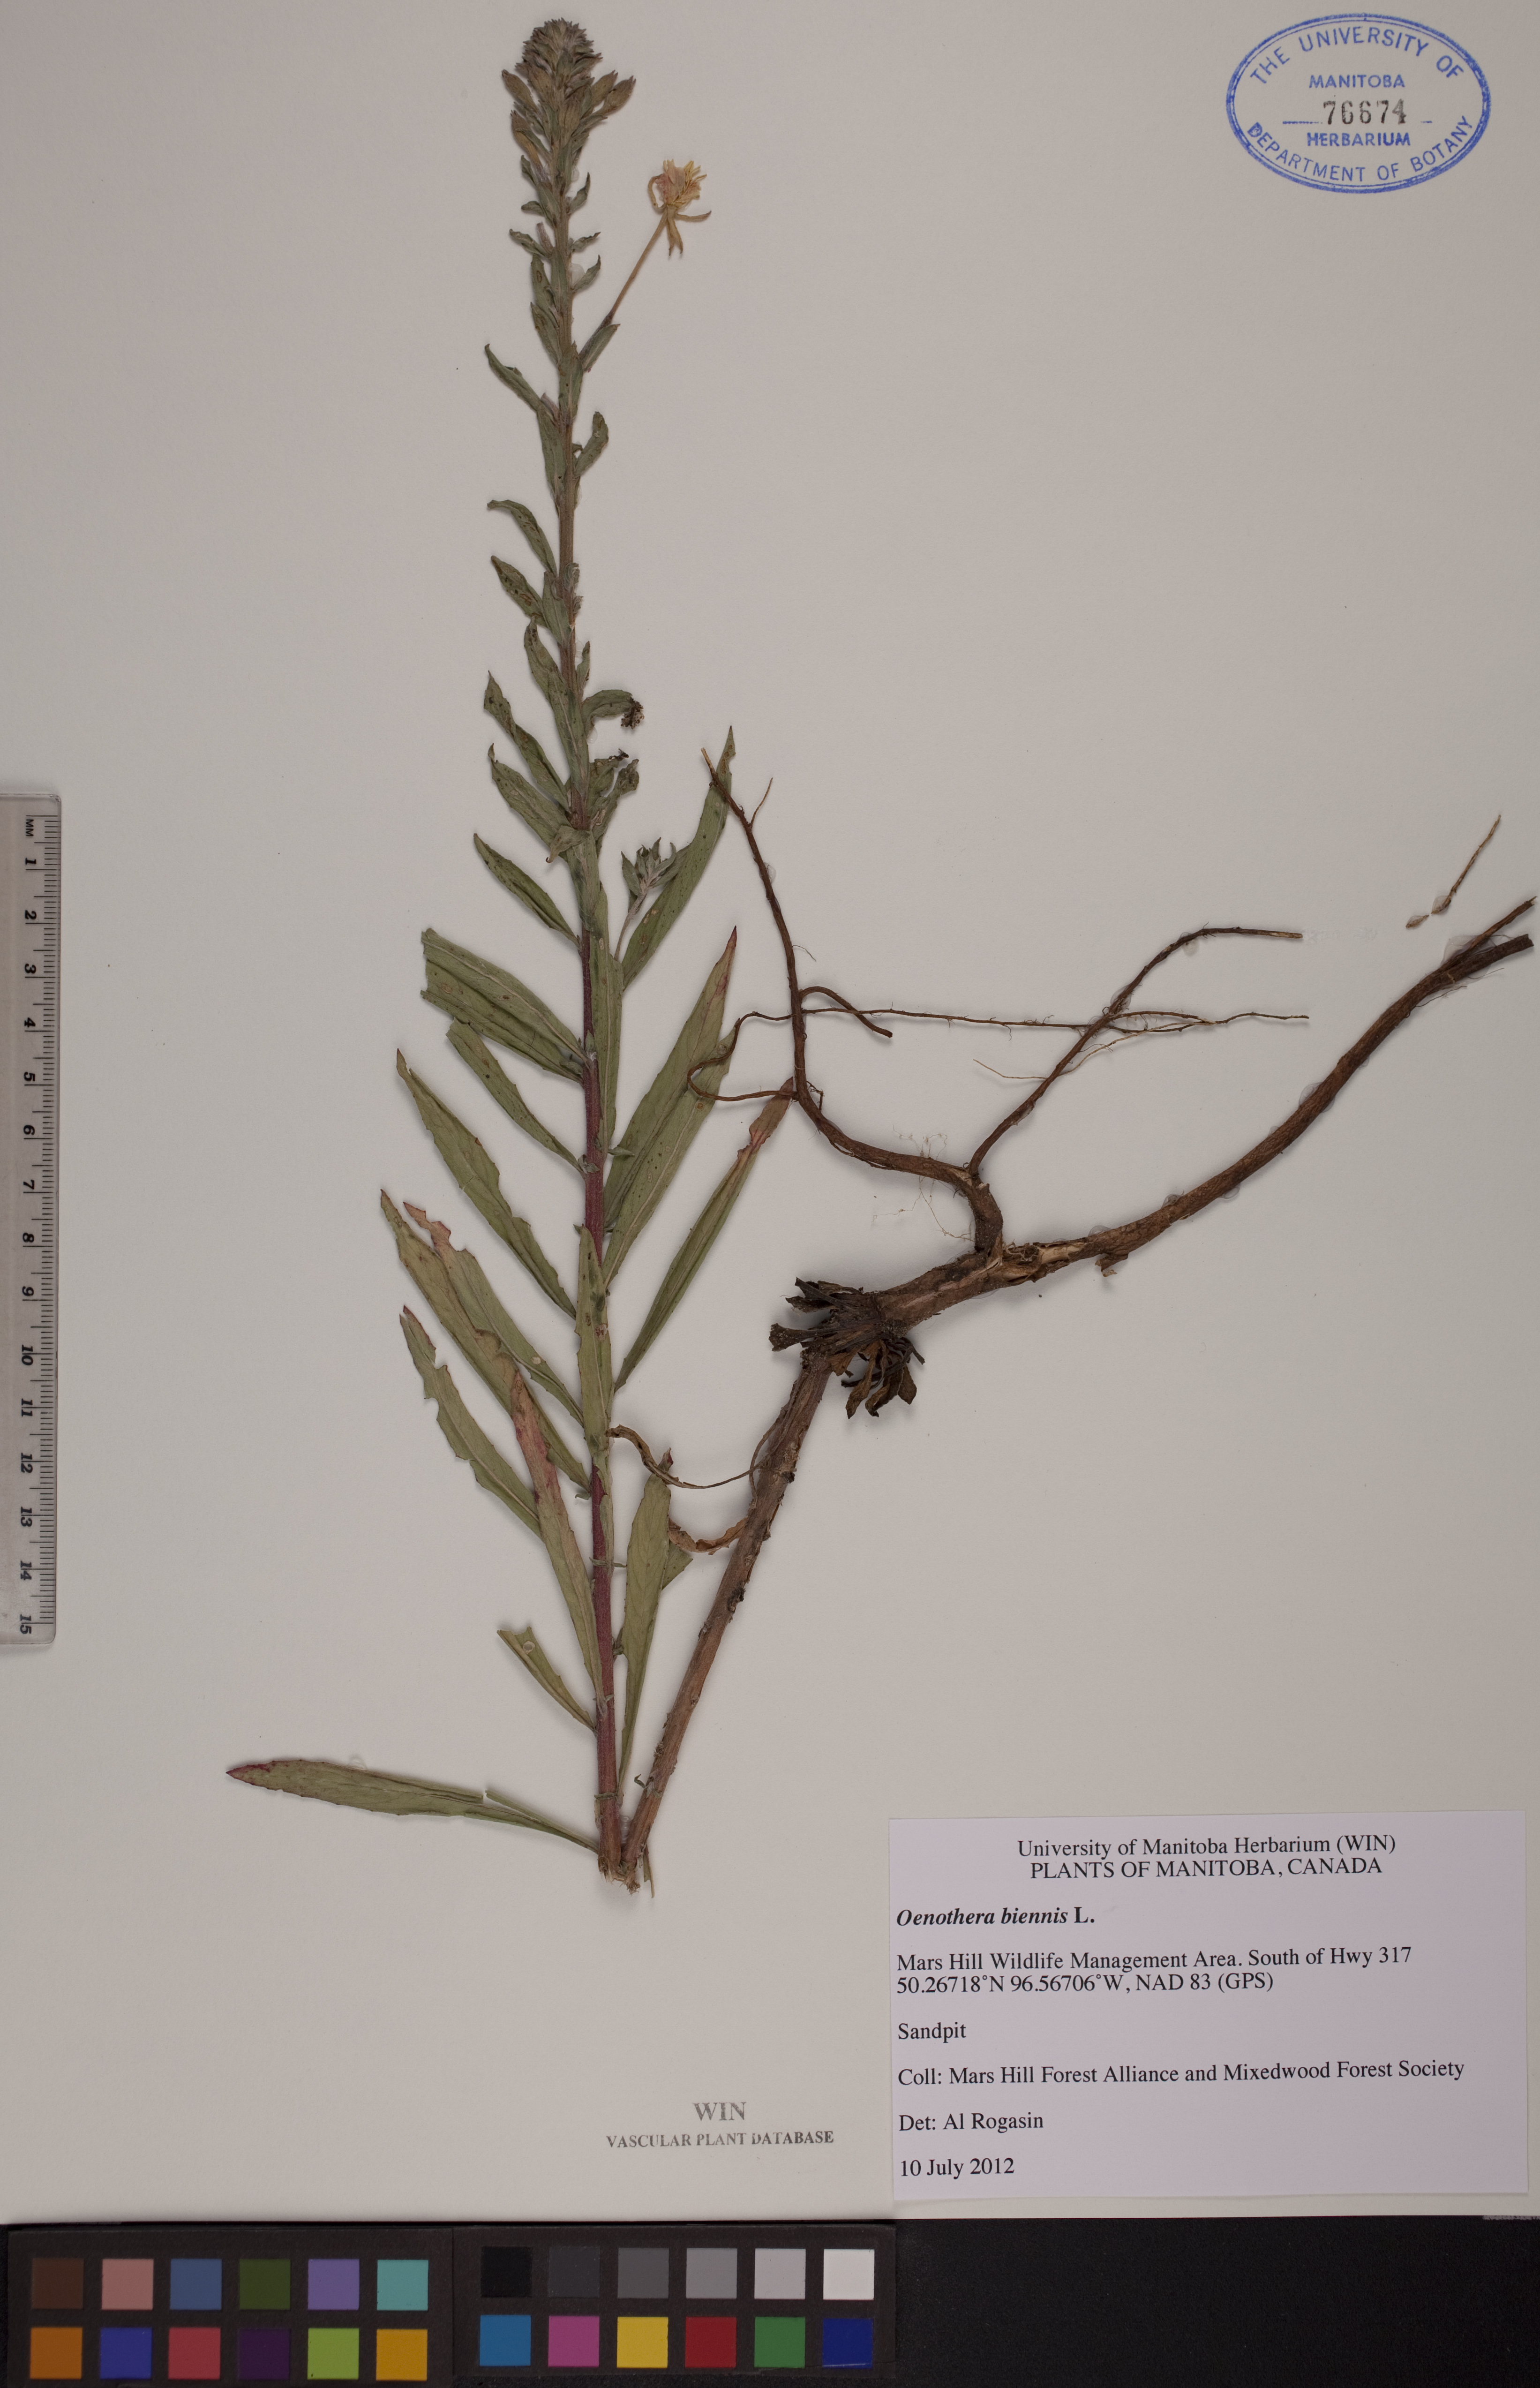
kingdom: Plantae
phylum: Tracheophyta
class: Magnoliopsida
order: Myrtales
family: Onagraceae
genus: Oenothera
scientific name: Oenothera biennis
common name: Common evening-primrose
